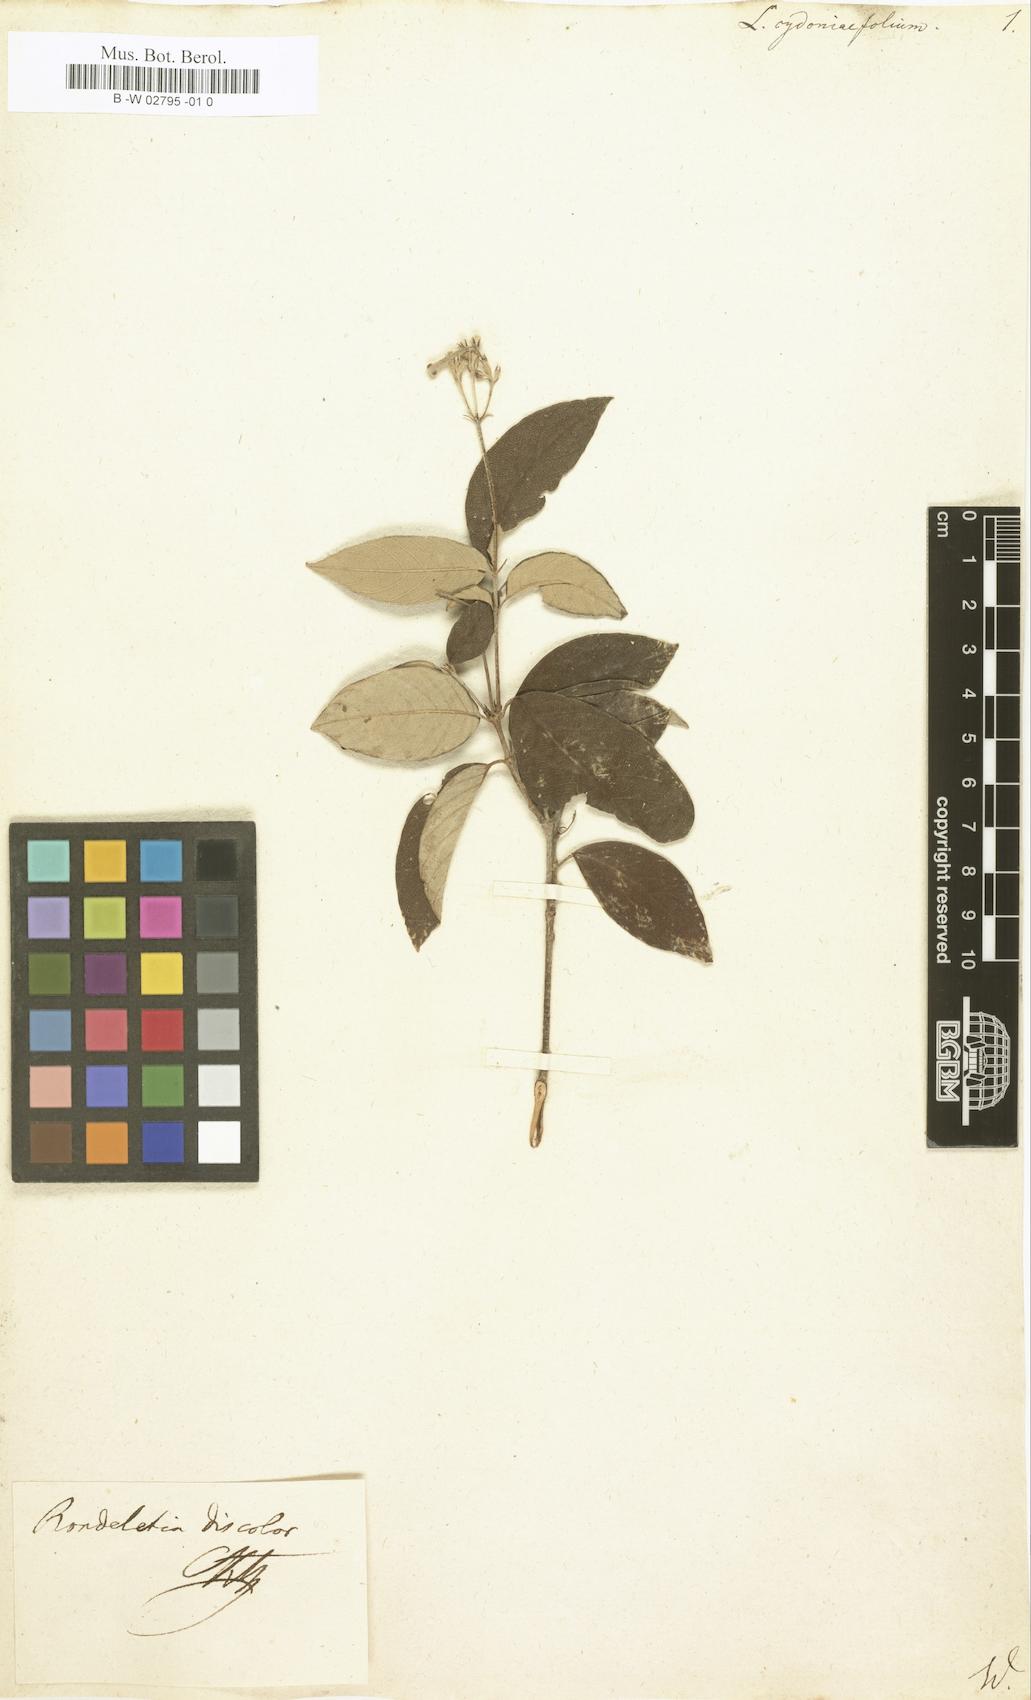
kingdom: Plantae
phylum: Tracheophyta
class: Magnoliopsida
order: Asterales
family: Asteraceae
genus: Lachnophyllum
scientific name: Lachnophyllum
